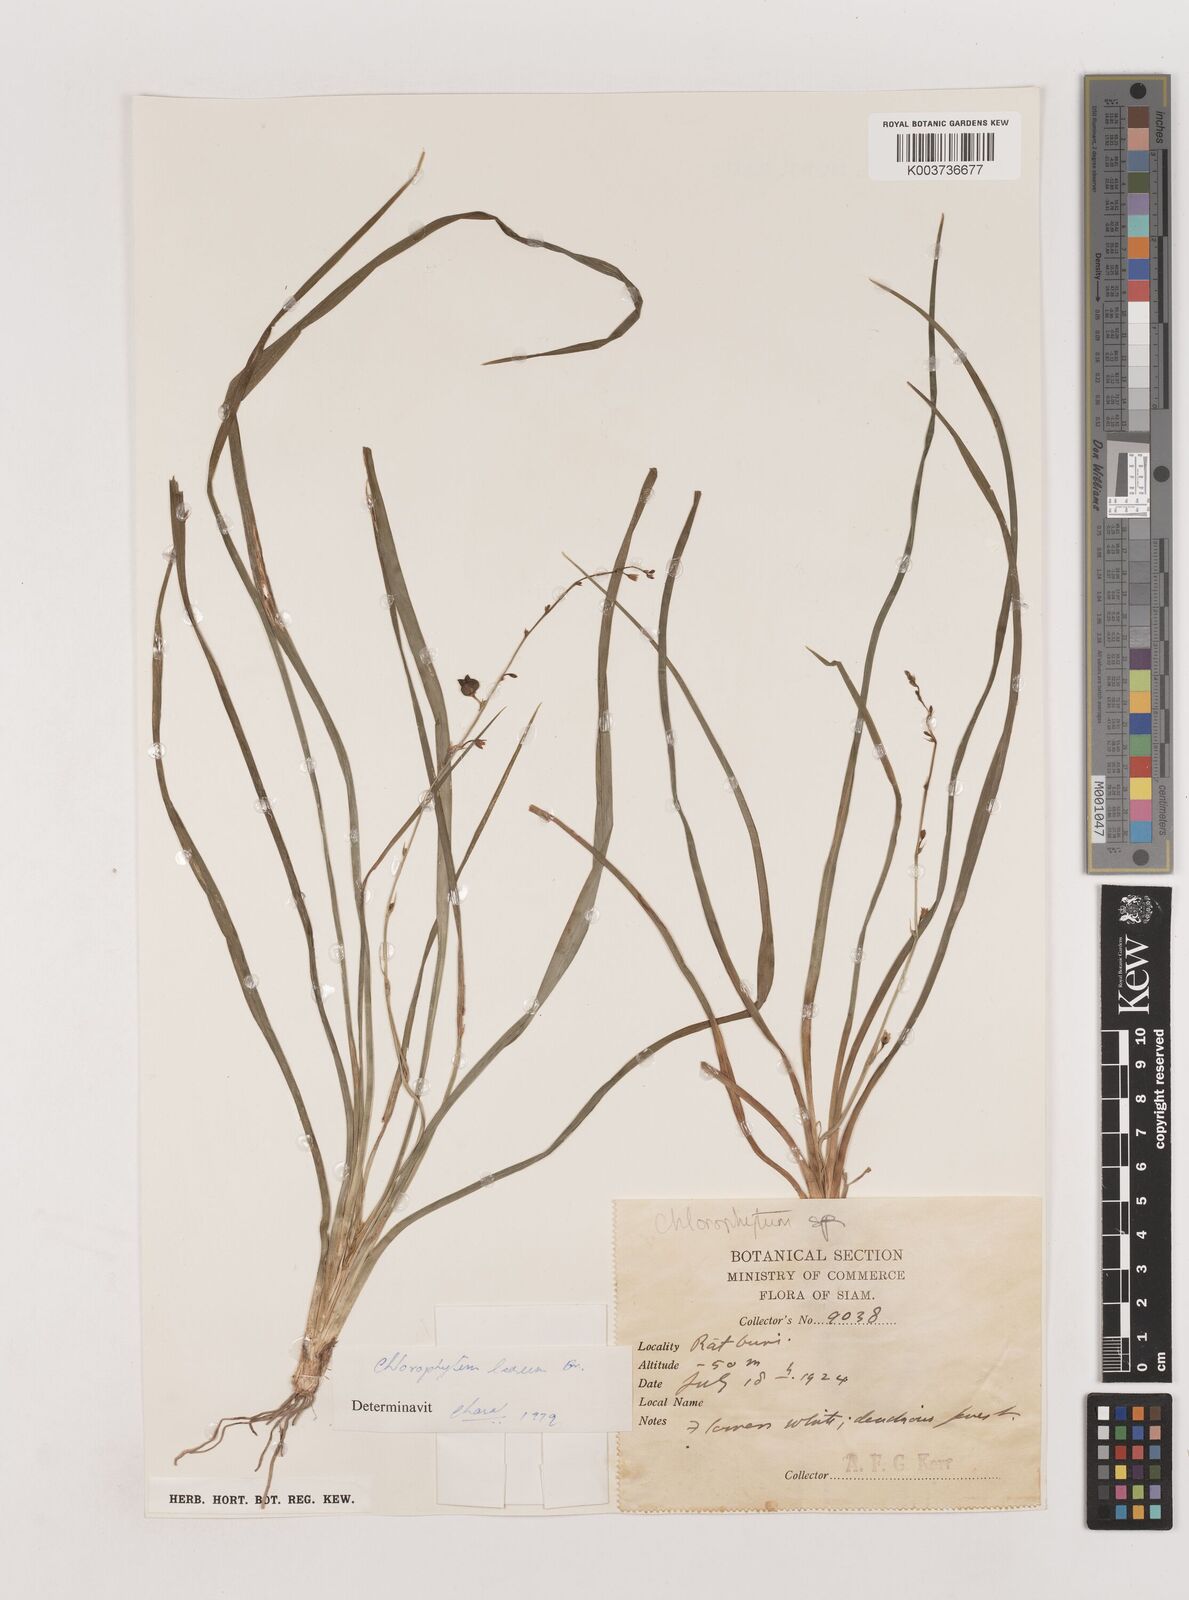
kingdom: Plantae
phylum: Tracheophyta
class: Liliopsida
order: Asparagales
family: Asparagaceae
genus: Chlorophytum
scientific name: Chlorophytum laxum
